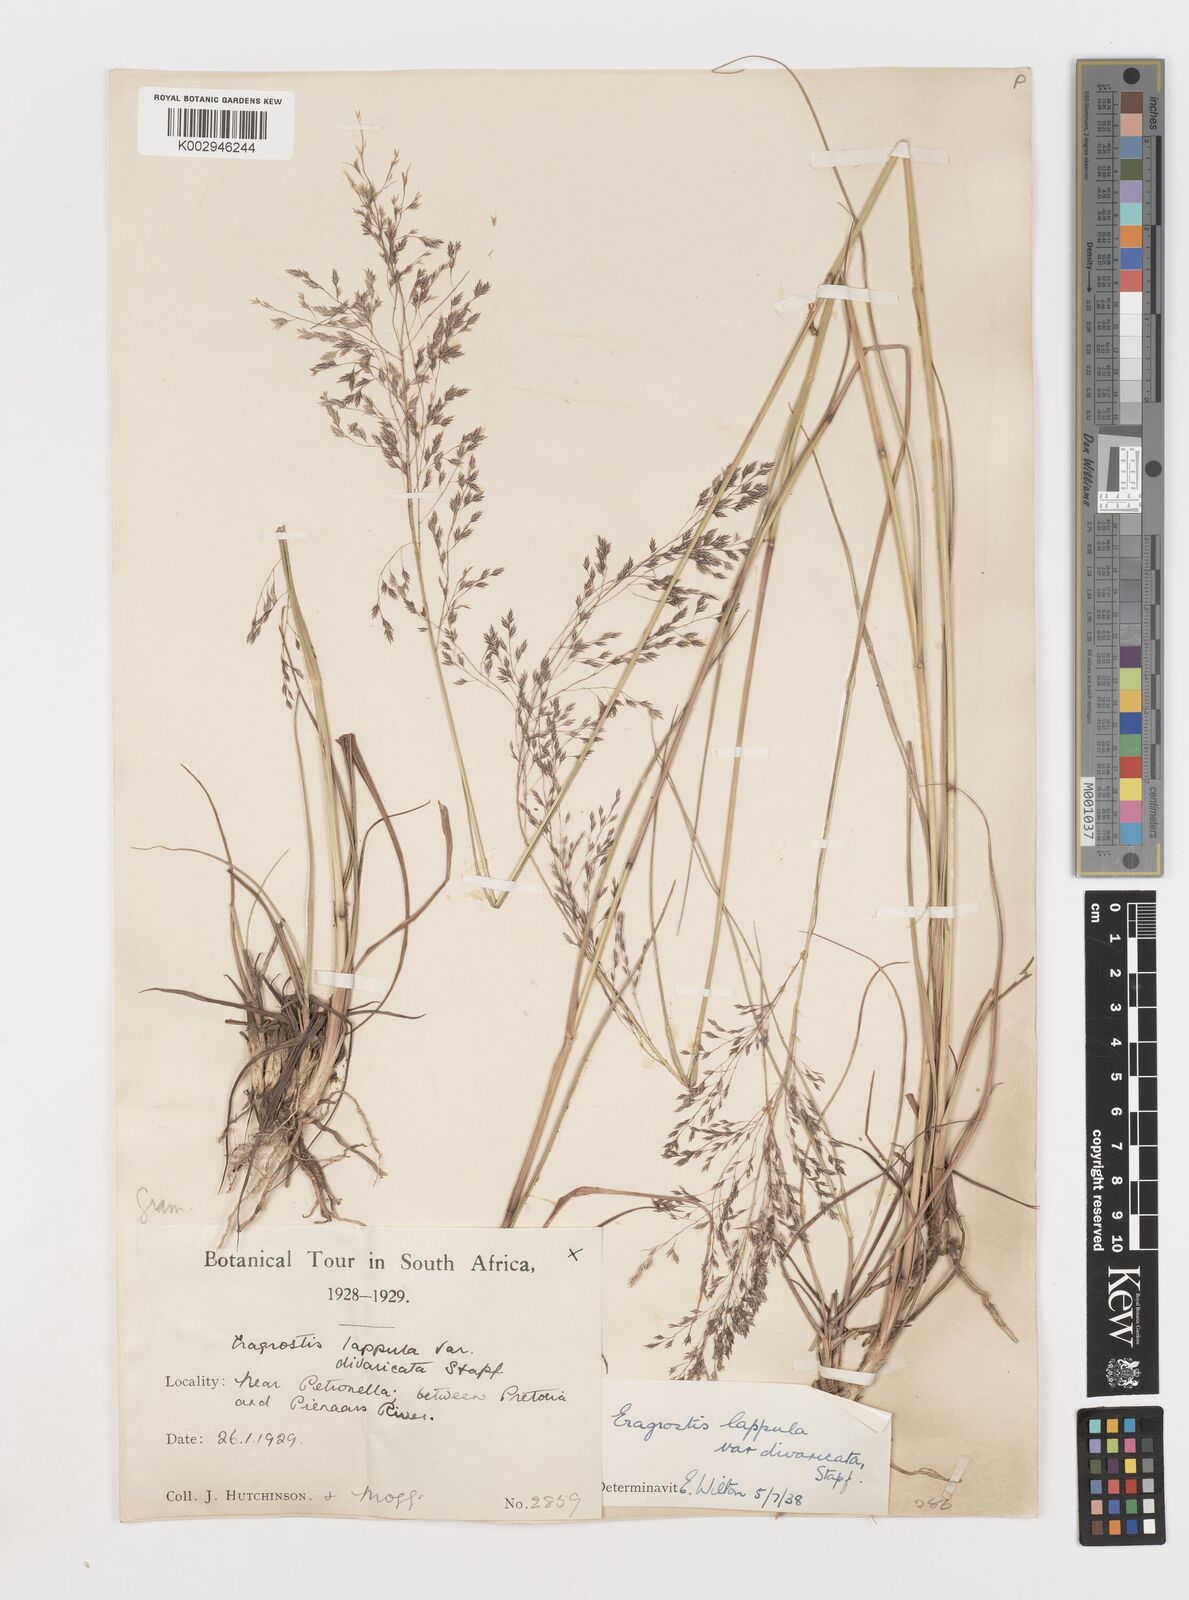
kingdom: Plantae
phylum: Tracheophyta
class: Liliopsida
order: Poales
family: Poaceae
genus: Eragrostis
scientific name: Eragrostis lappula
